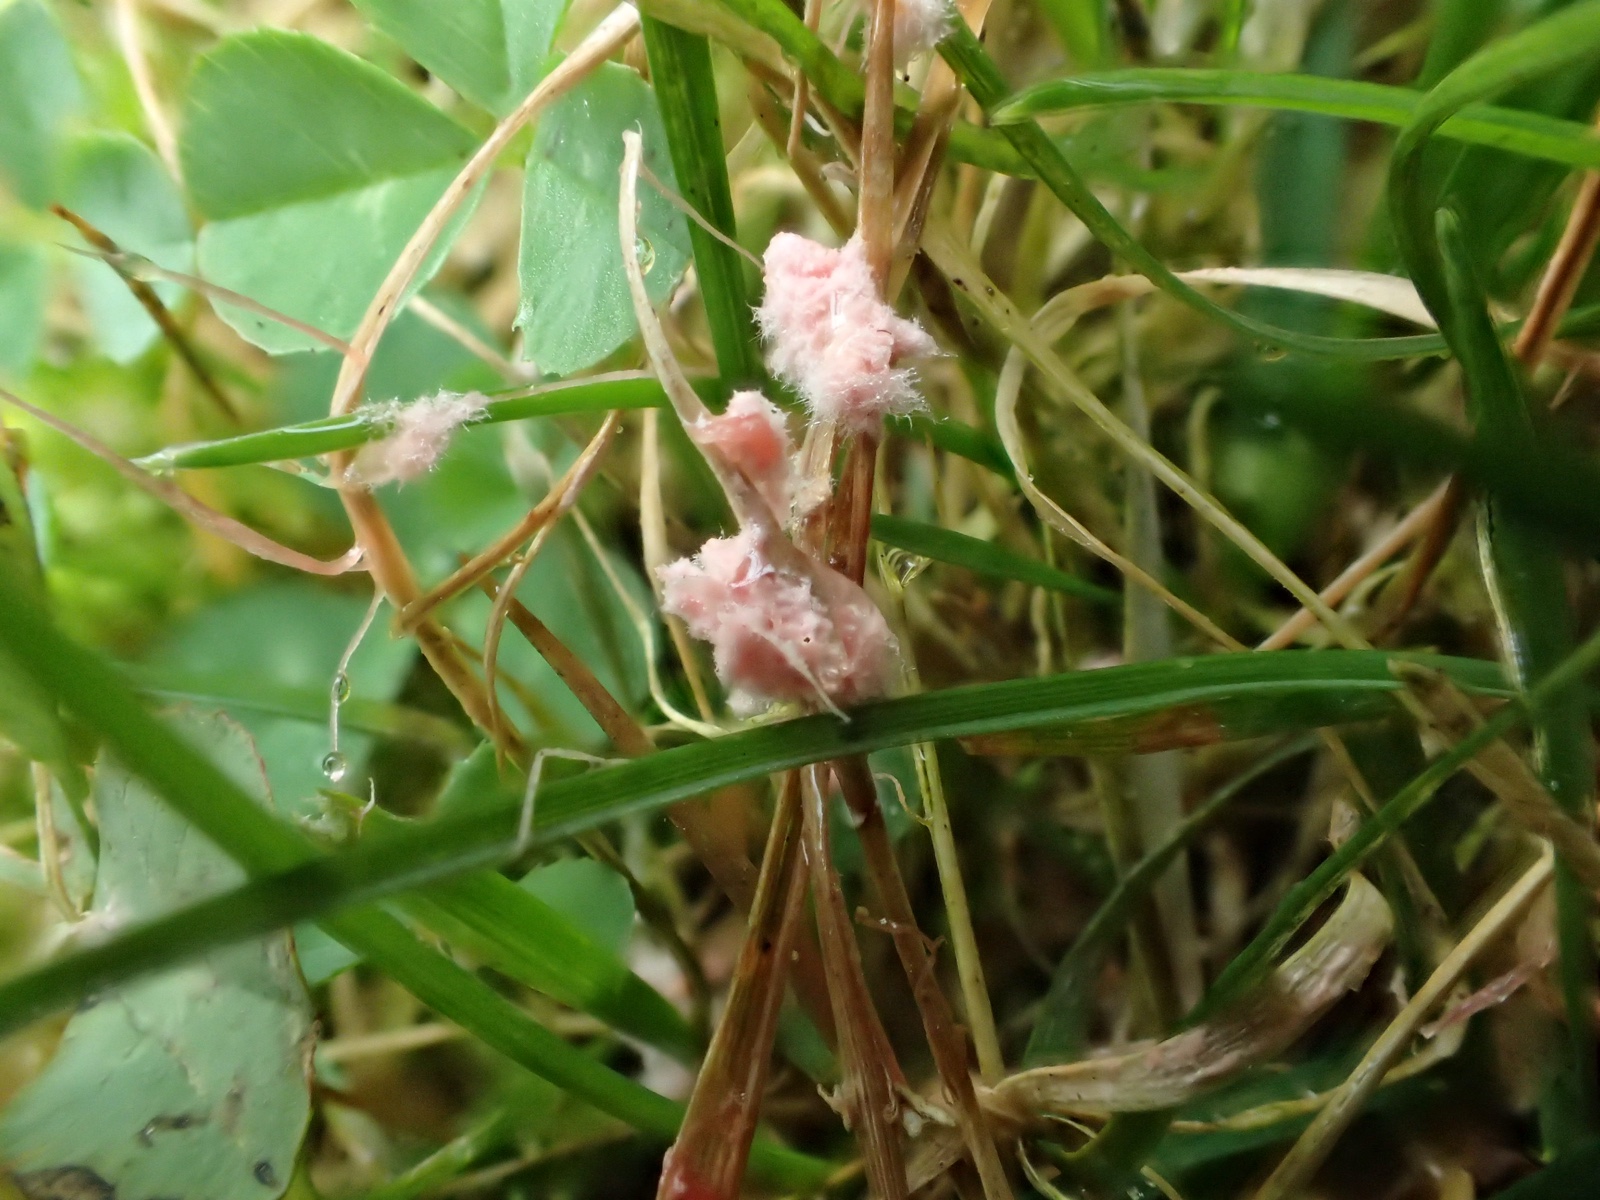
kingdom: Fungi
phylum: Basidiomycota
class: Agaricomycetes
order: Corticiales
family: Corticiaceae
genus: Laetisaria
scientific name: Laetisaria fuciformis
